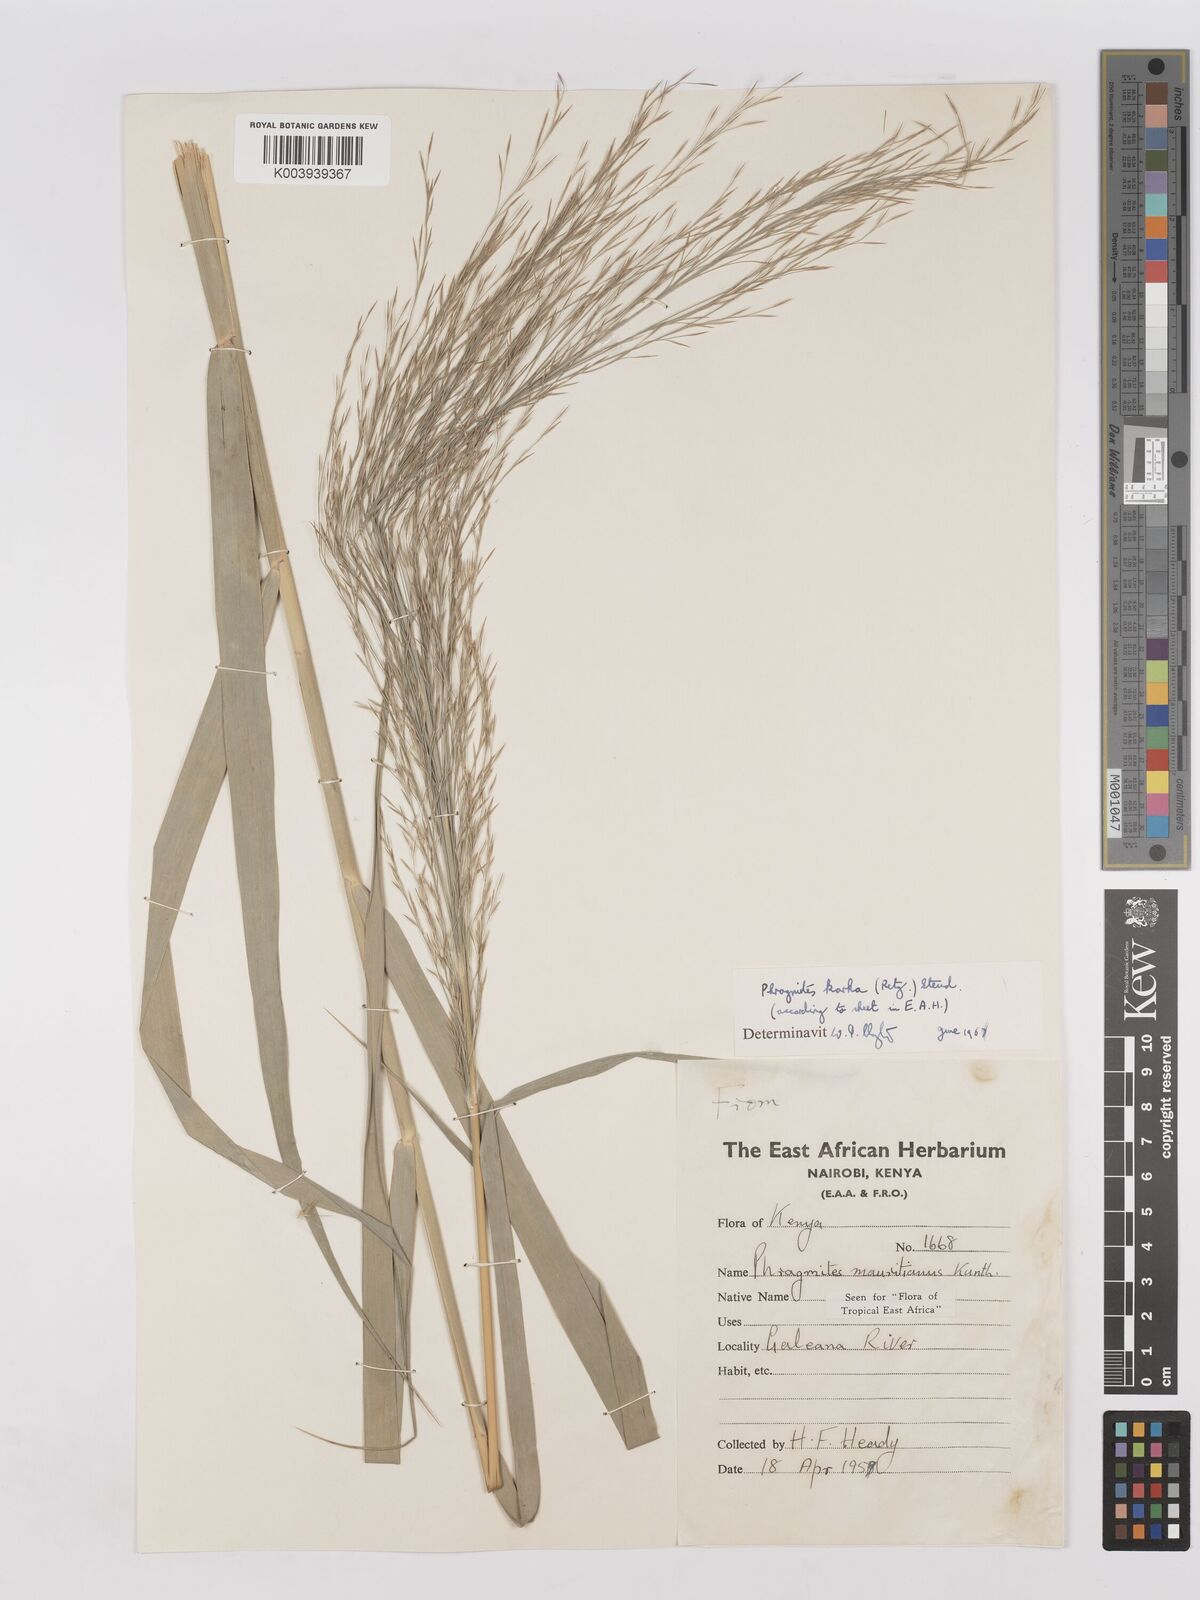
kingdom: Plantae
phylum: Tracheophyta
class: Liliopsida
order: Poales
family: Poaceae
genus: Phragmites
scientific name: Phragmites karka
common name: Tropical reed
